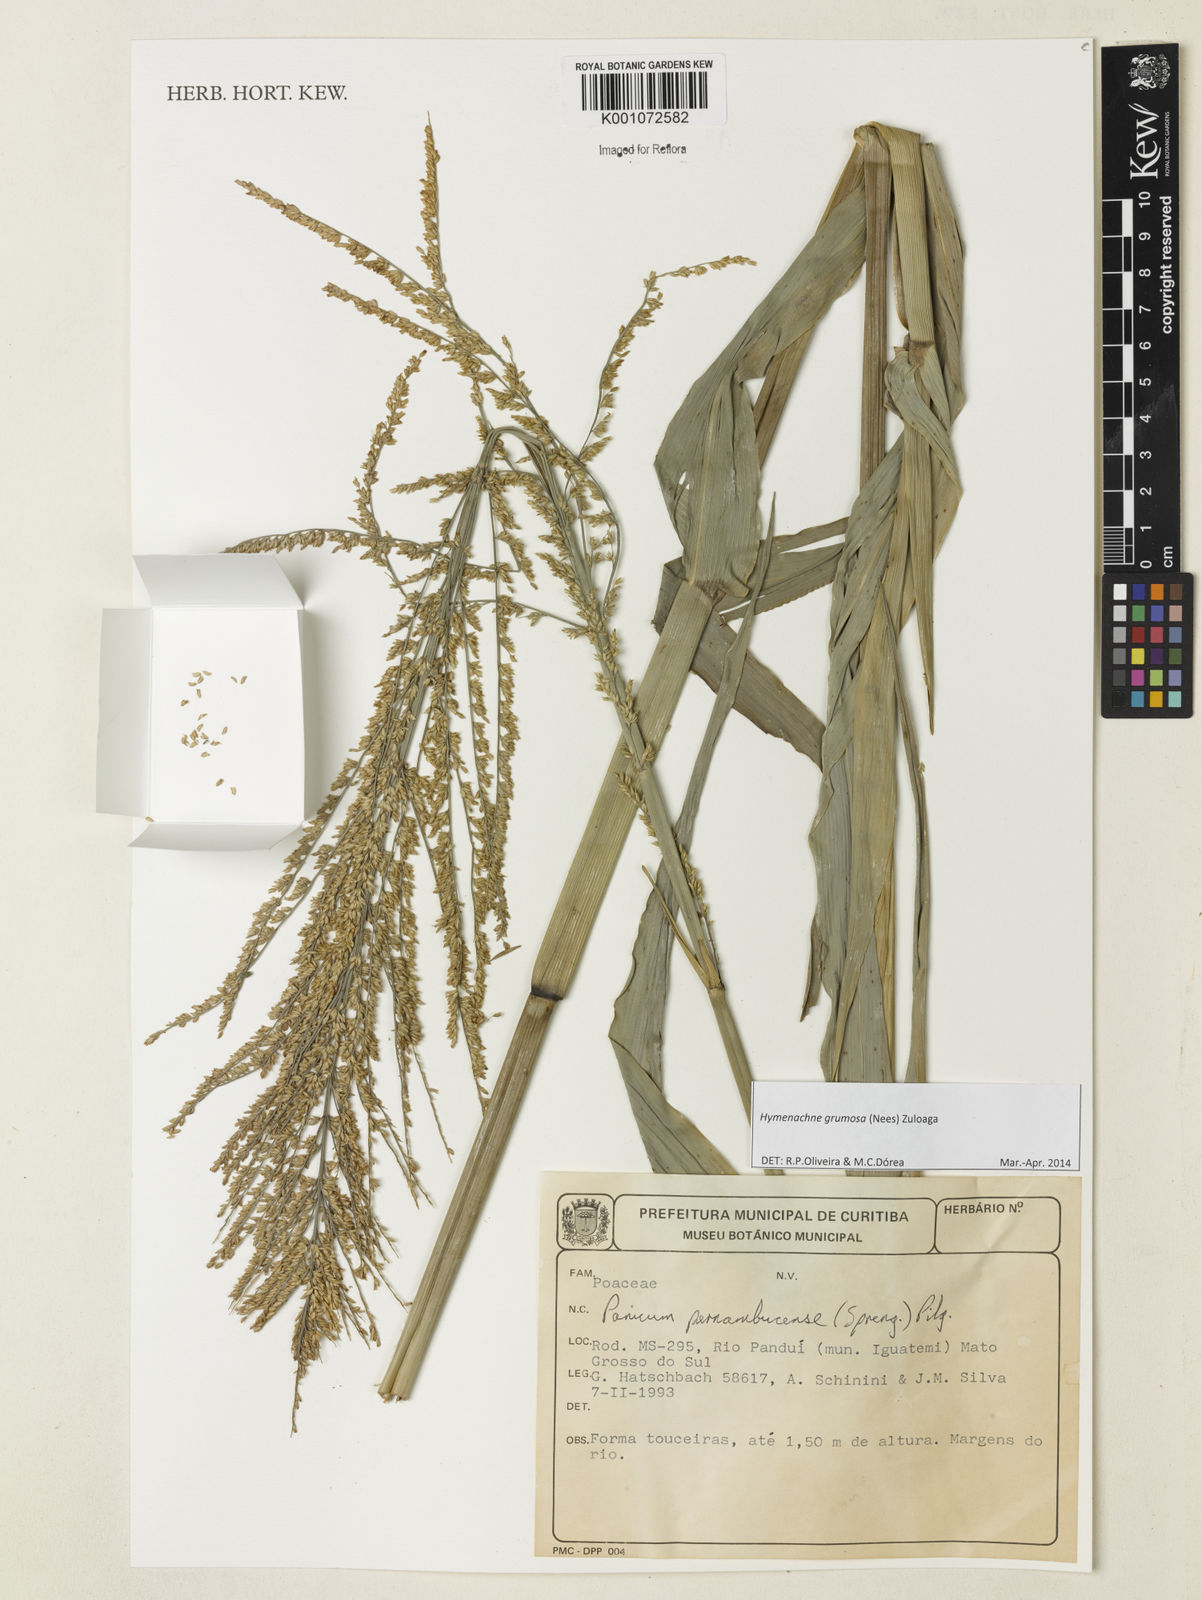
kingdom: Plantae
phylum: Tracheophyta
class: Liliopsida
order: Poales
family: Poaceae
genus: Hymenachne
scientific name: Hymenachne grumosa
